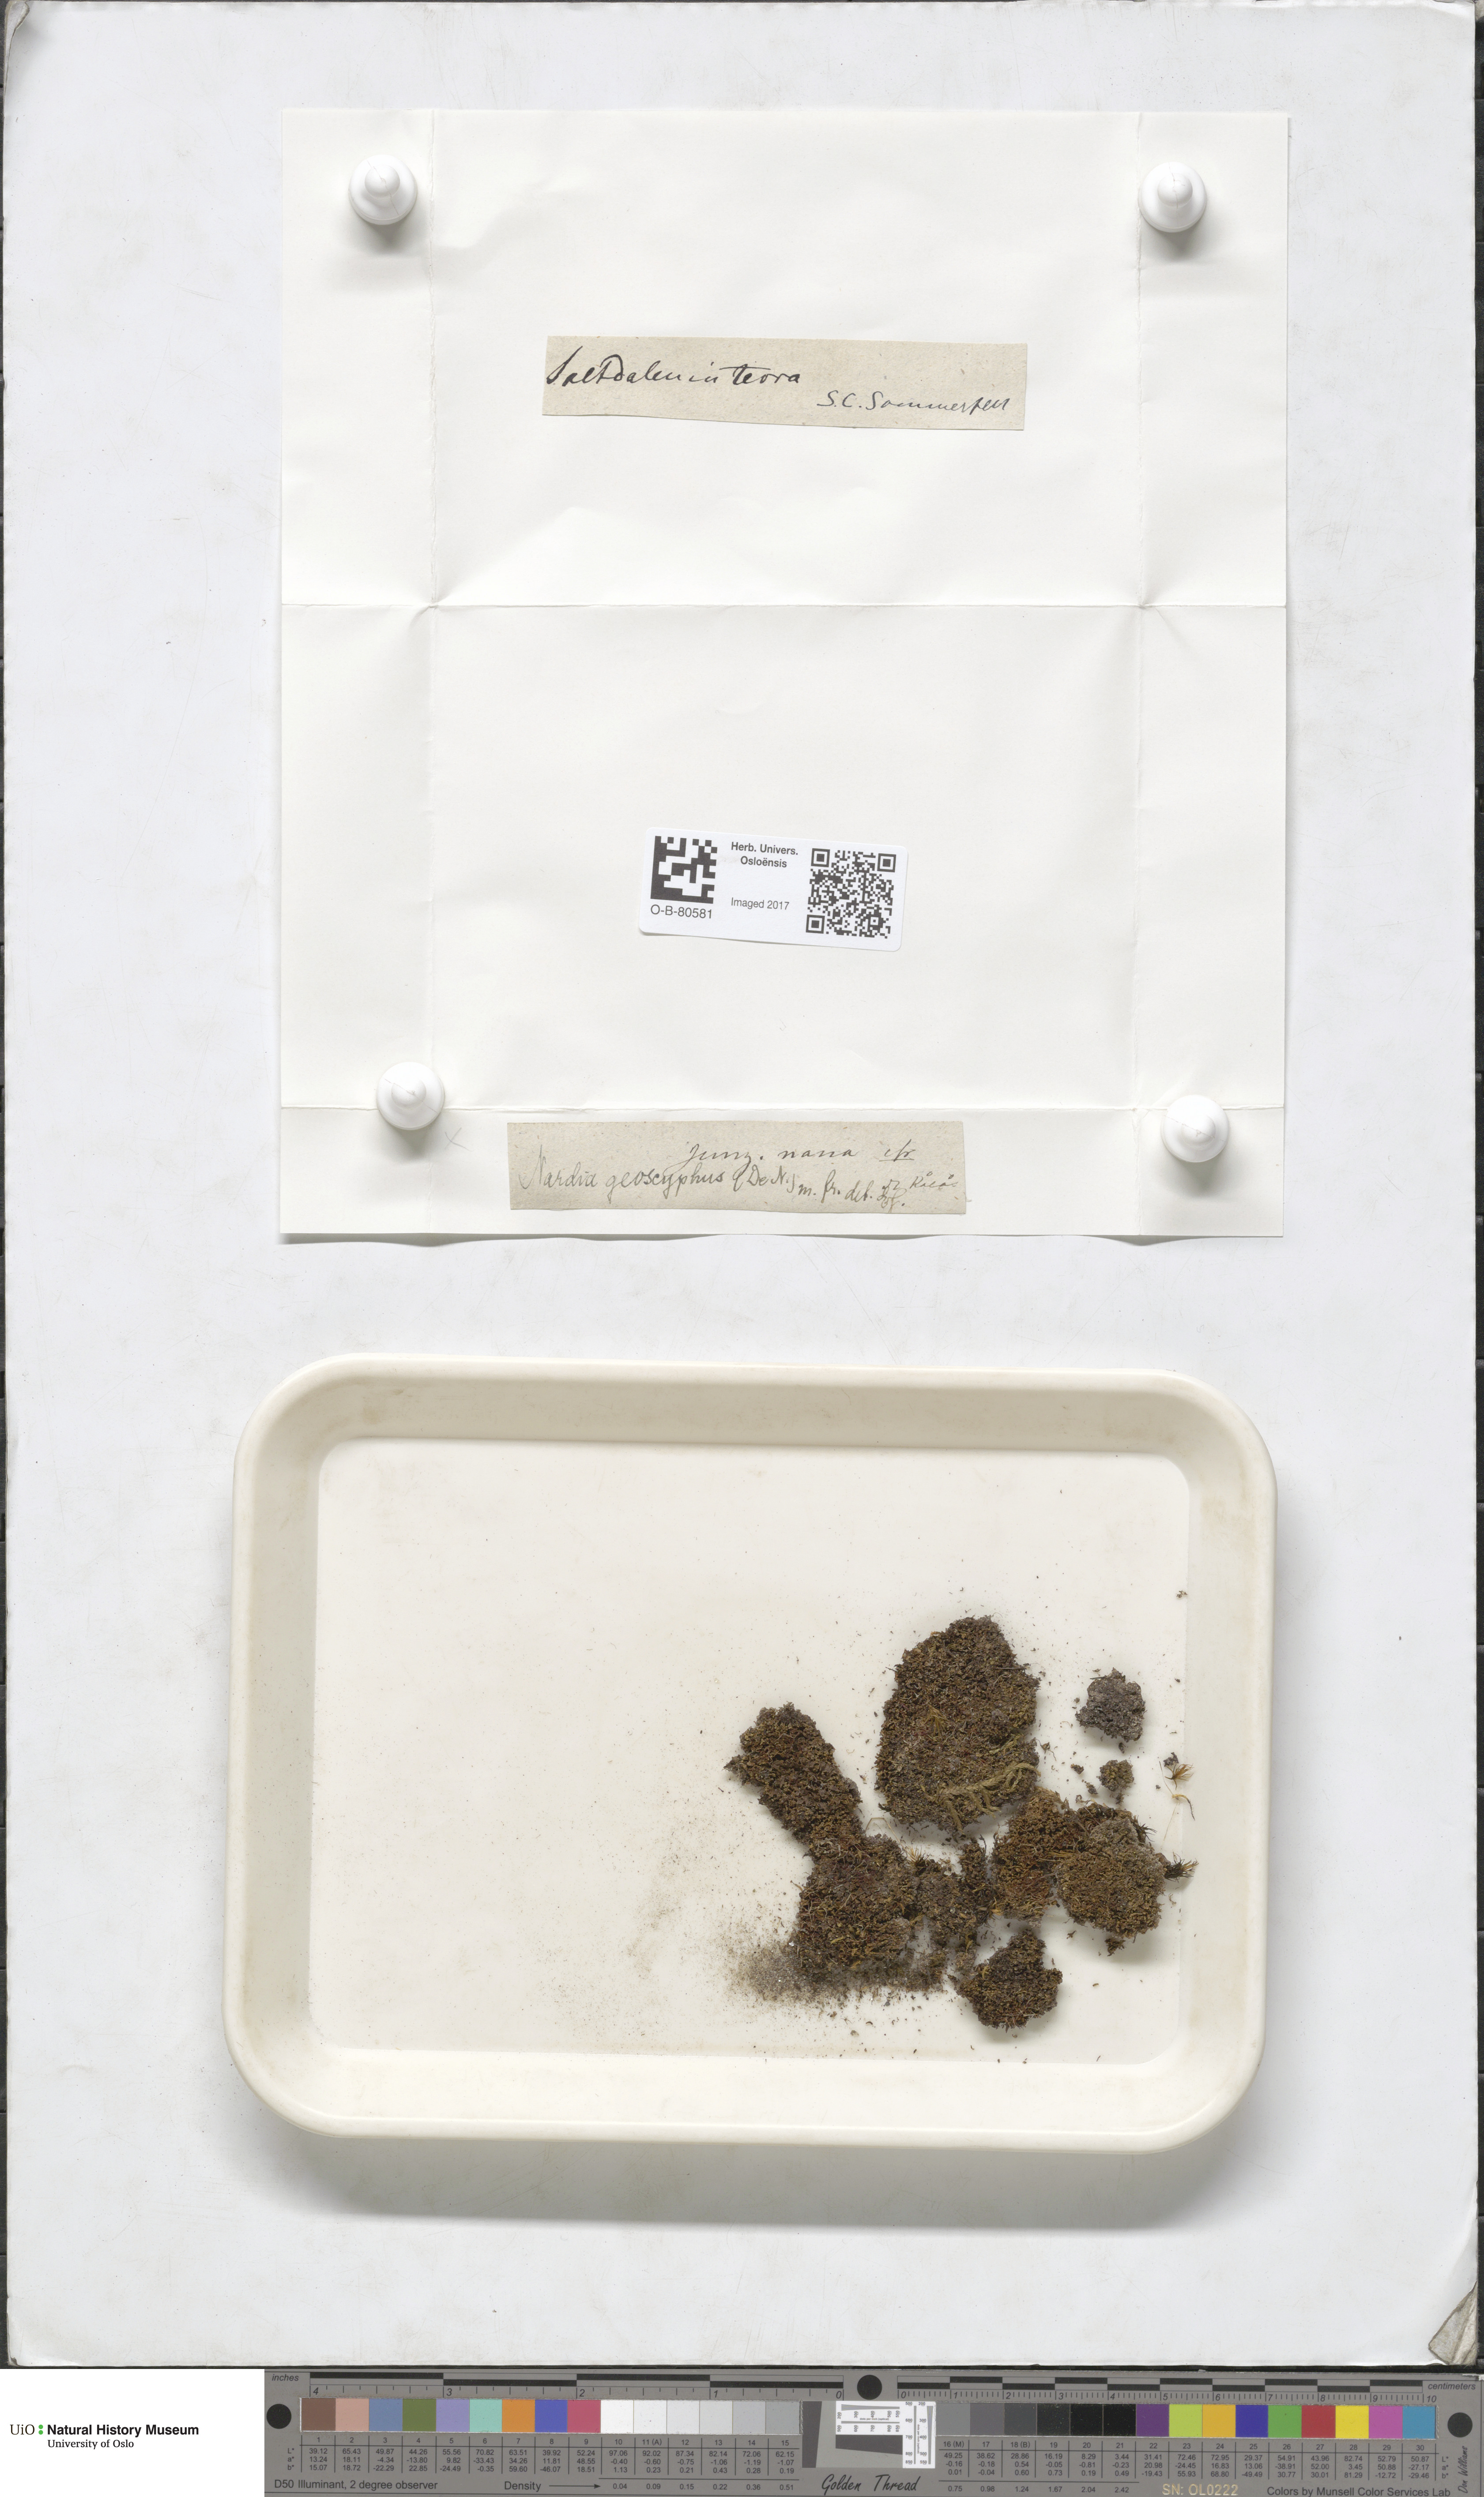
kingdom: Plantae
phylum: Marchantiophyta
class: Jungermanniopsida
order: Jungermanniales
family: Gymnomitriaceae
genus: Nardia
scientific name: Nardia geoscyphus
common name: Earth-cup flapwort
